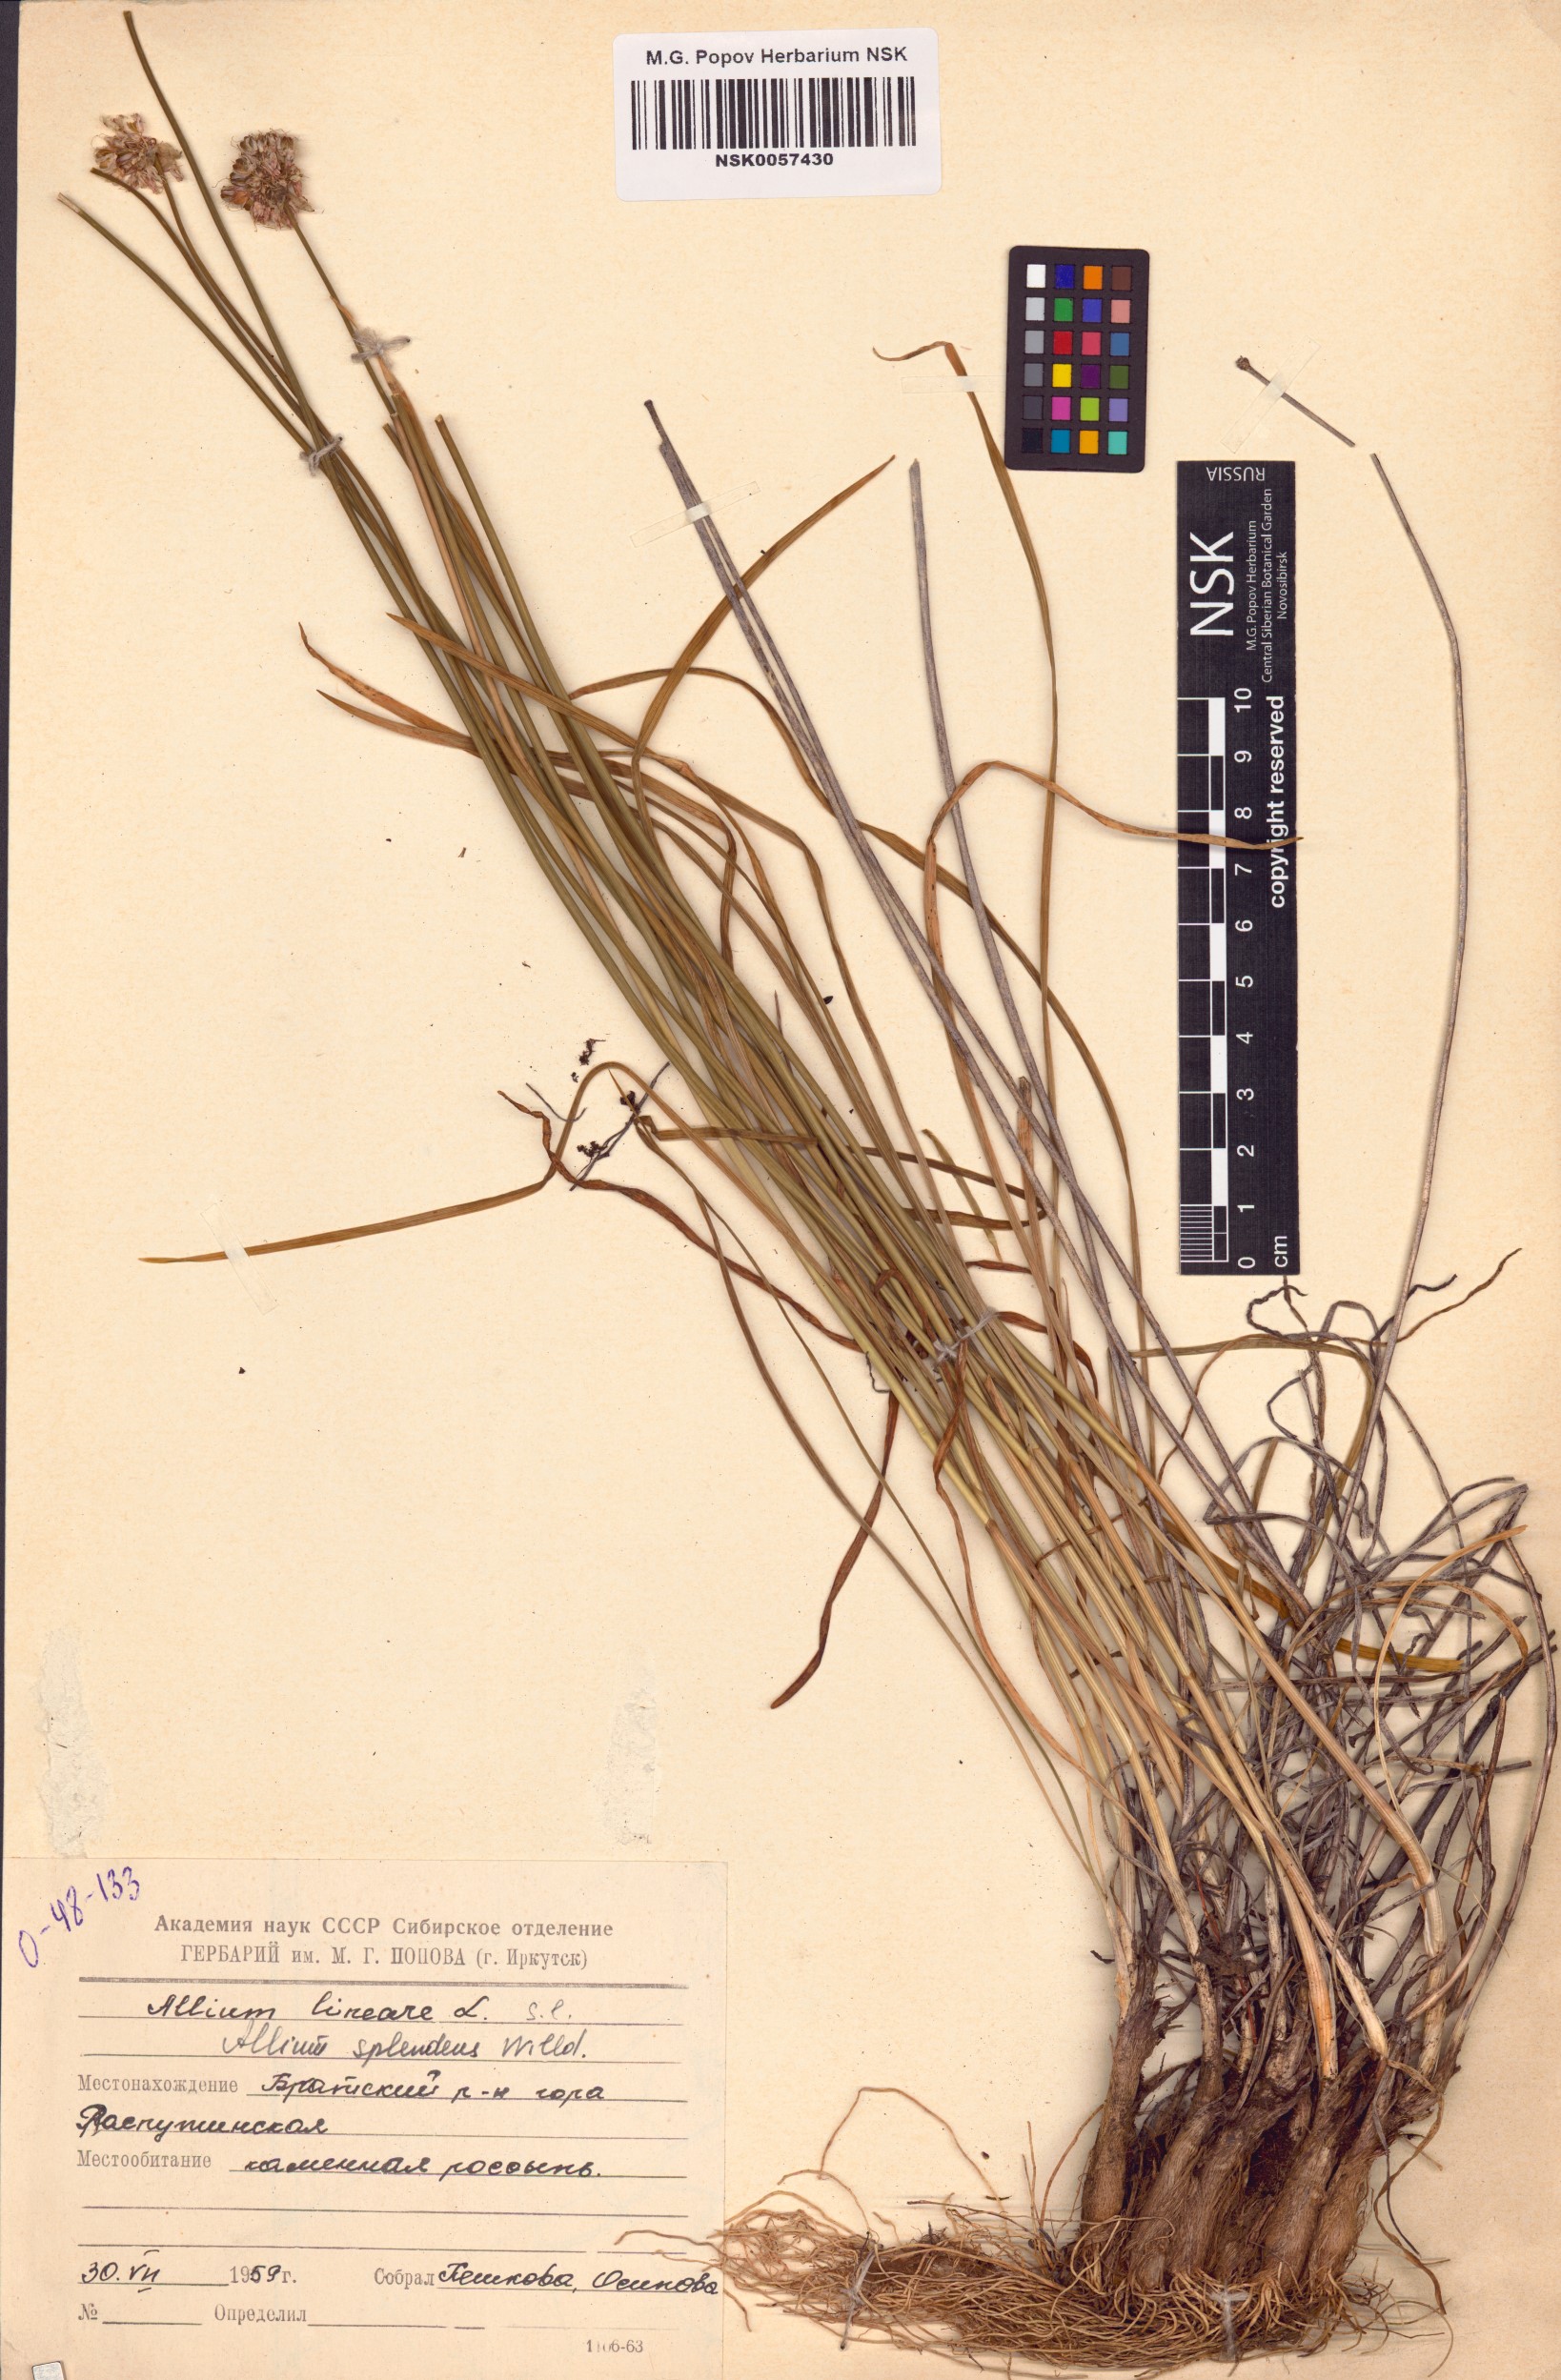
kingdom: Plantae
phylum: Tracheophyta
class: Liliopsida
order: Asparagales
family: Amaryllidaceae
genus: Allium
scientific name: Allium splendens
